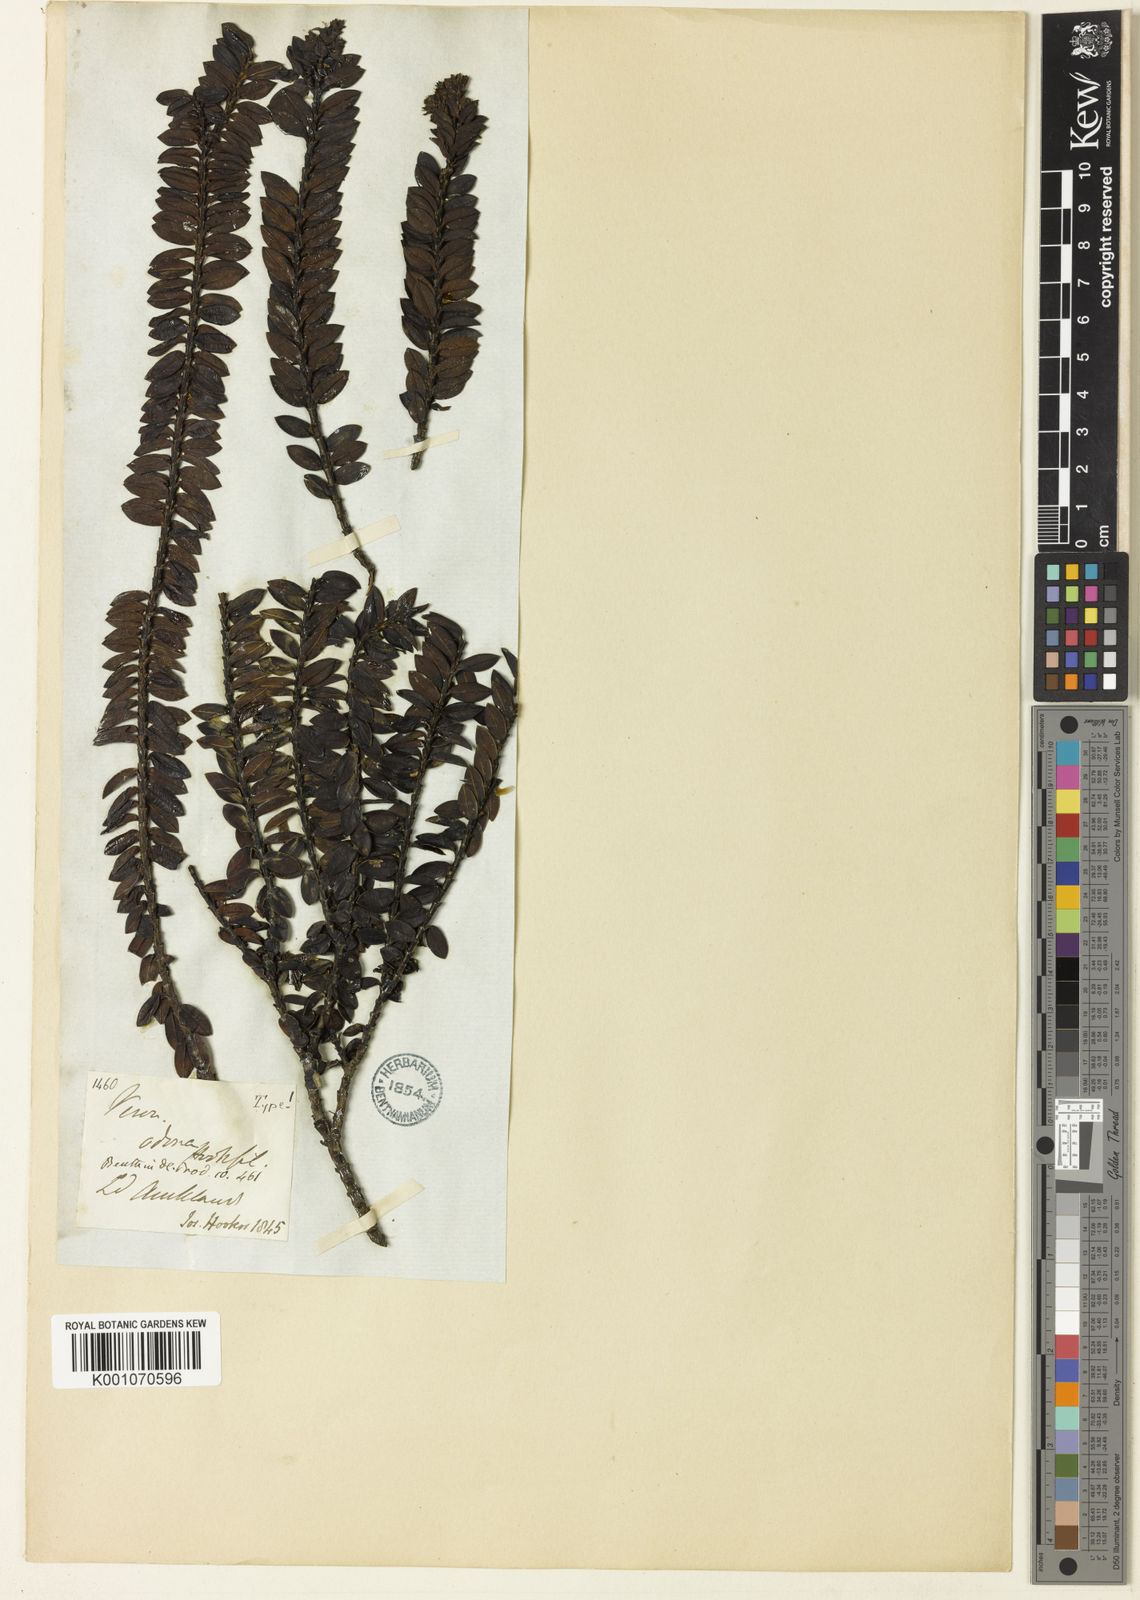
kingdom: Plantae
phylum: Tracheophyta
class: Magnoliopsida
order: Lamiales
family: Plantaginaceae
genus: Veronica
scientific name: Veronica odora
